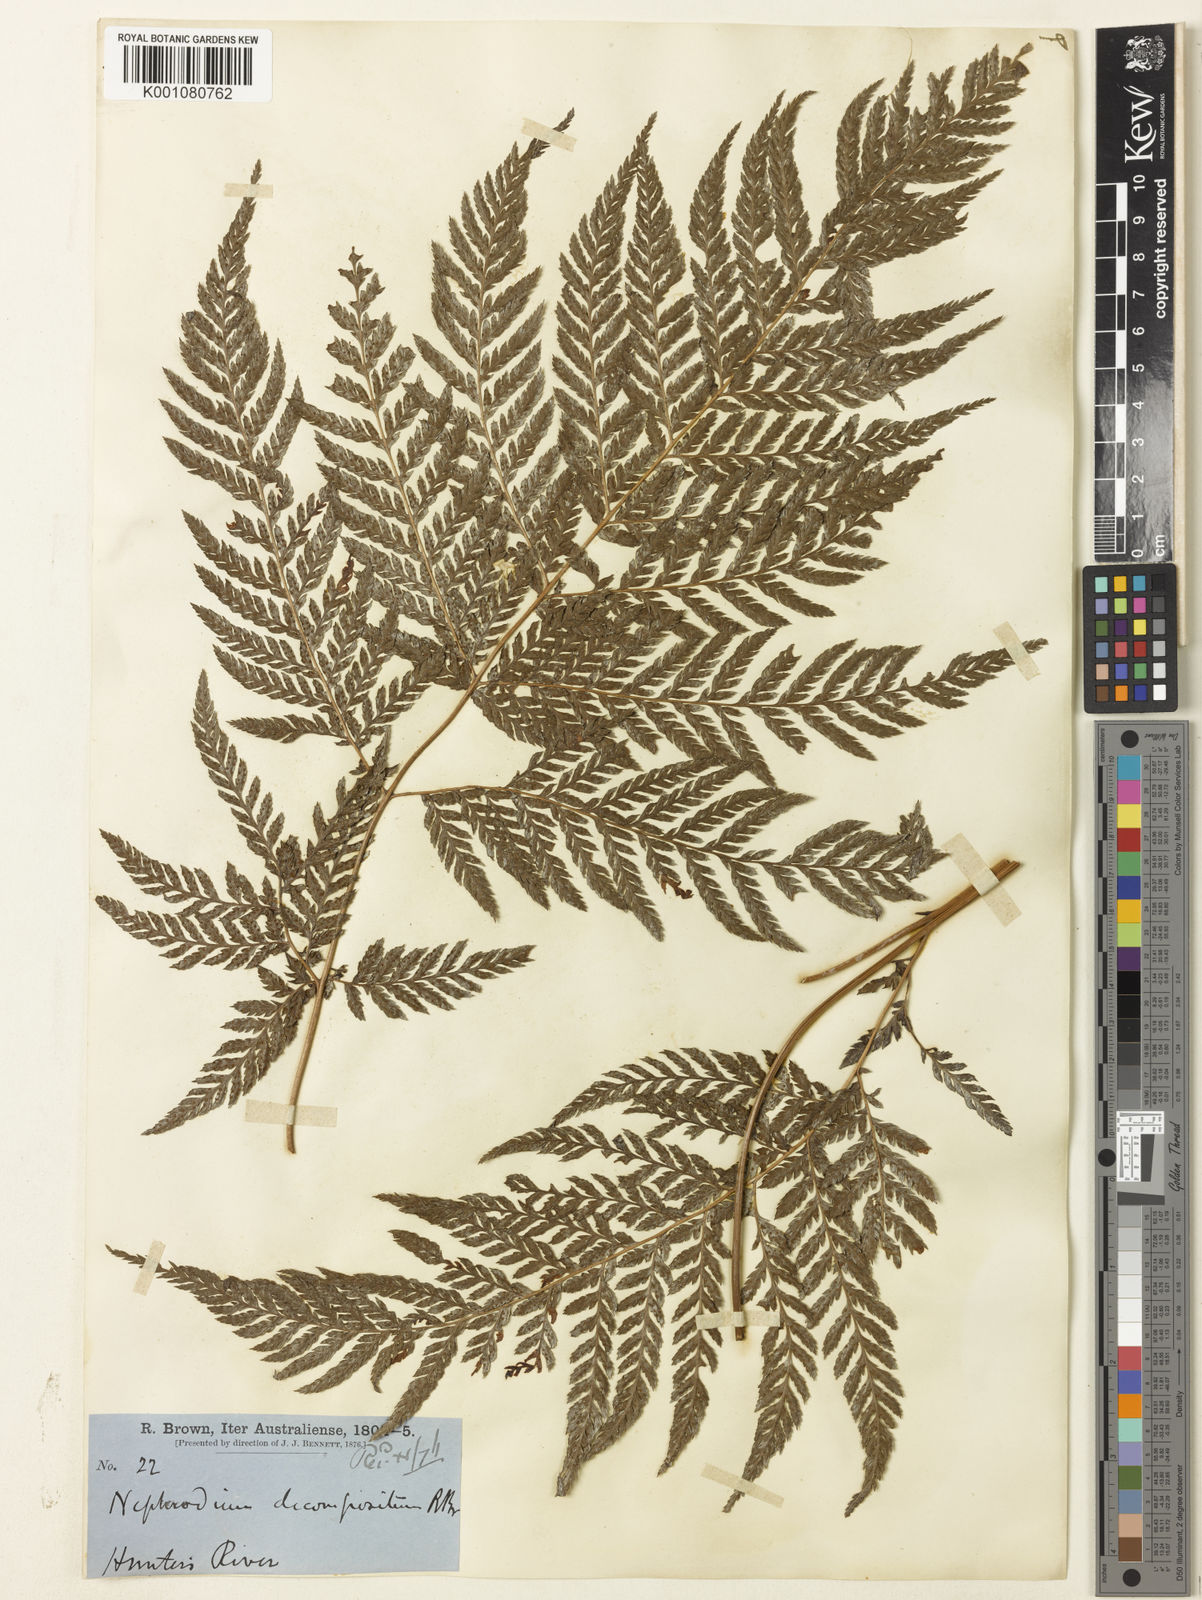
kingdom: Plantae
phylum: Tracheophyta
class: Polypodiopsida
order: Polypodiales
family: Dryopteridaceae
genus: Lastreopsis
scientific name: Lastreopsis decomposita
